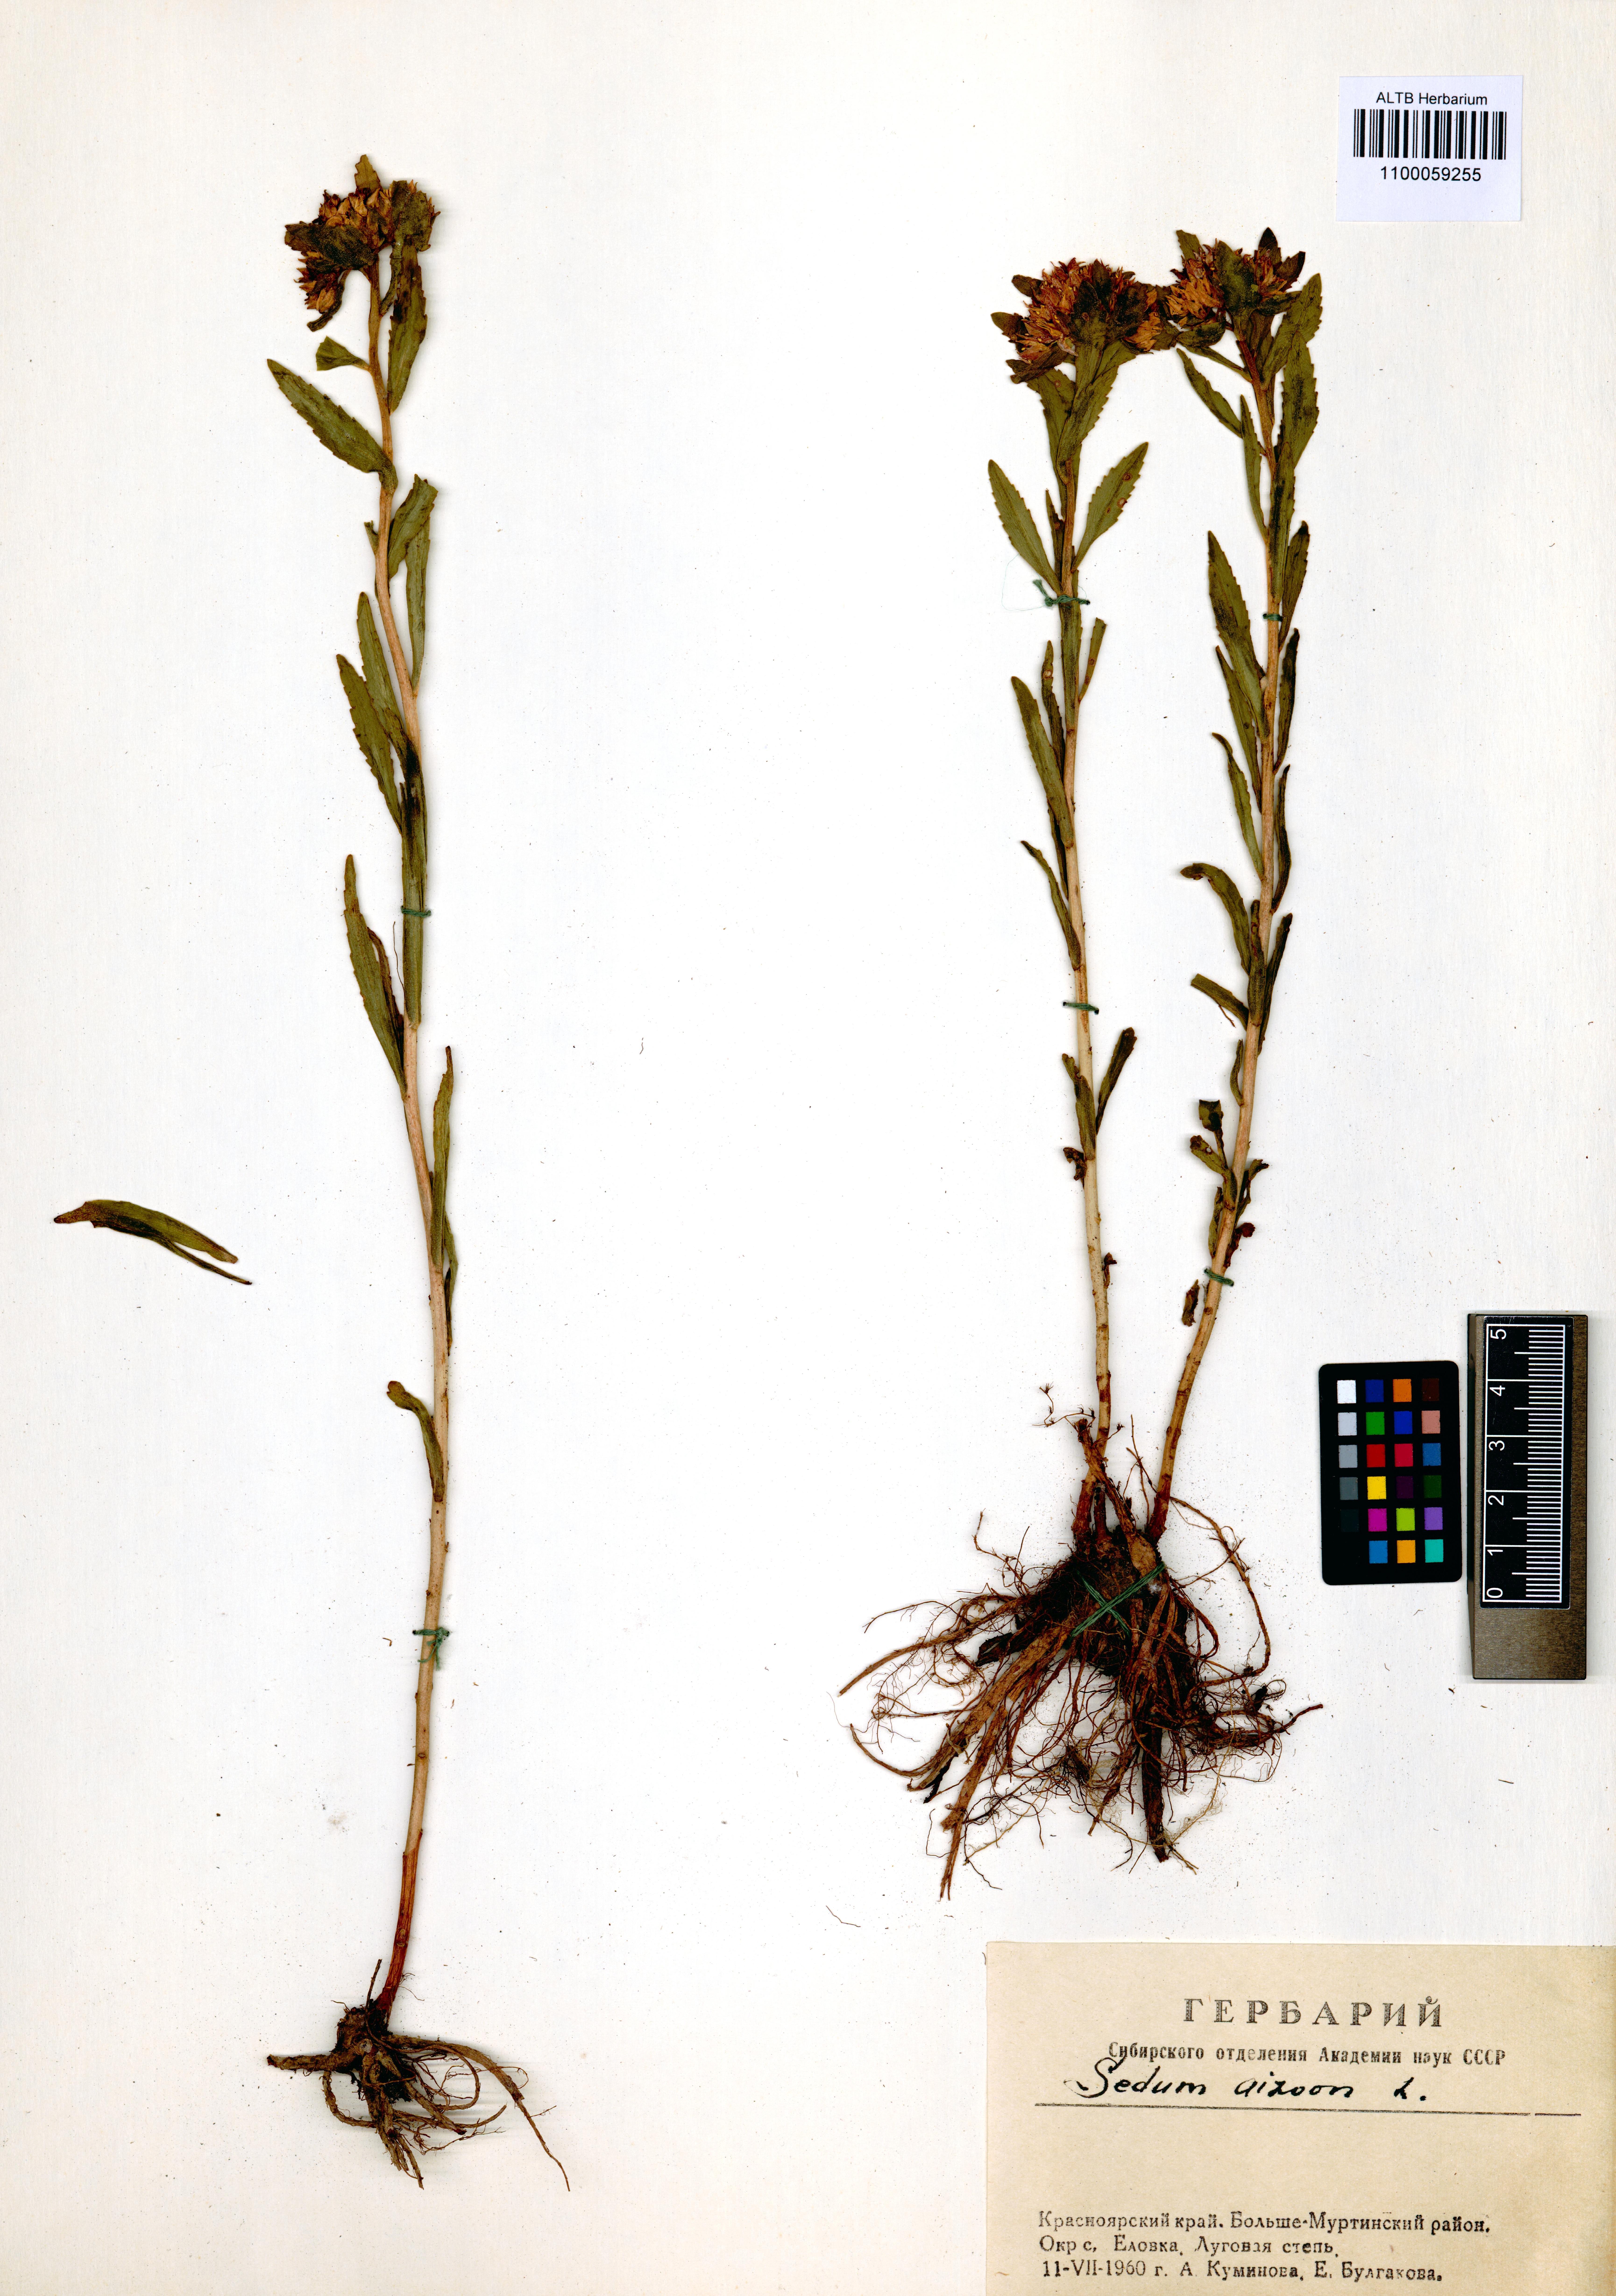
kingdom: Plantae
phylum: Tracheophyta
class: Magnoliopsida
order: Saxifragales
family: Crassulaceae
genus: Phedimus
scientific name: Phedimus aizoon
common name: Orpin aizoon
